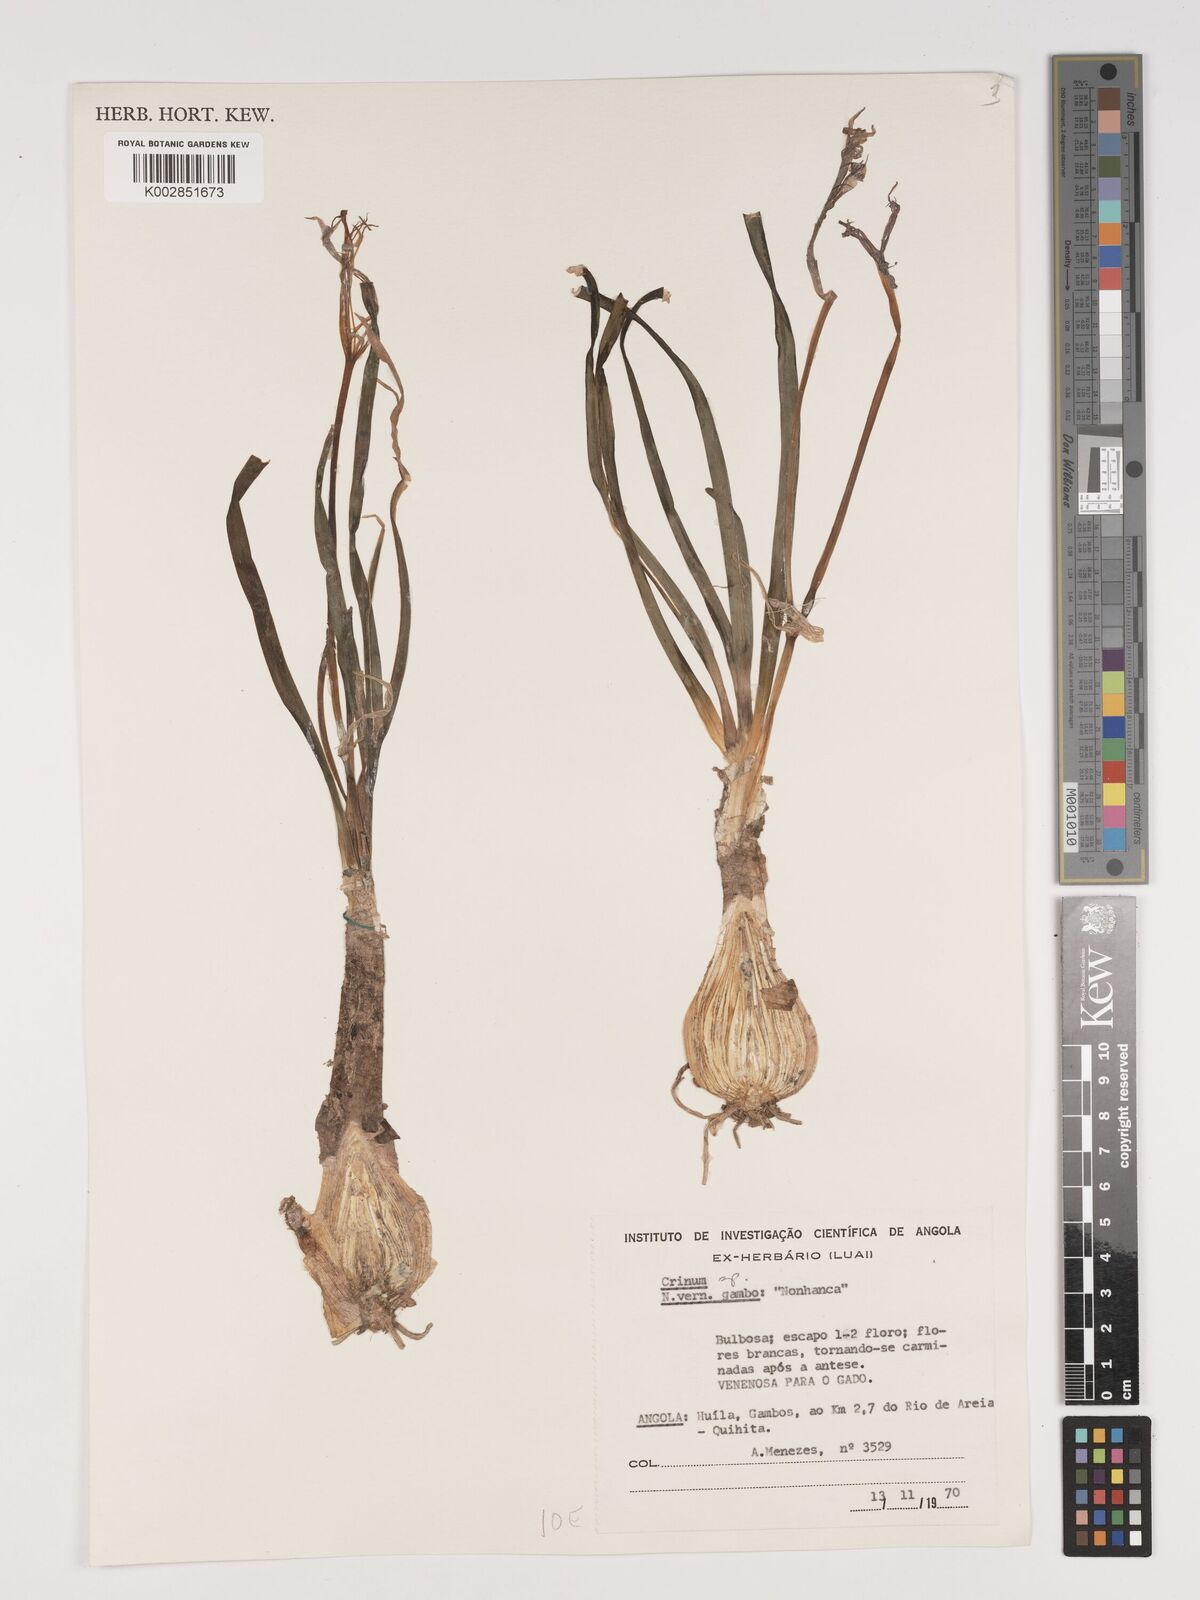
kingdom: Plantae
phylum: Tracheophyta
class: Liliopsida
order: Asparagales
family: Amaryllidaceae
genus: Crinum
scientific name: Crinum
